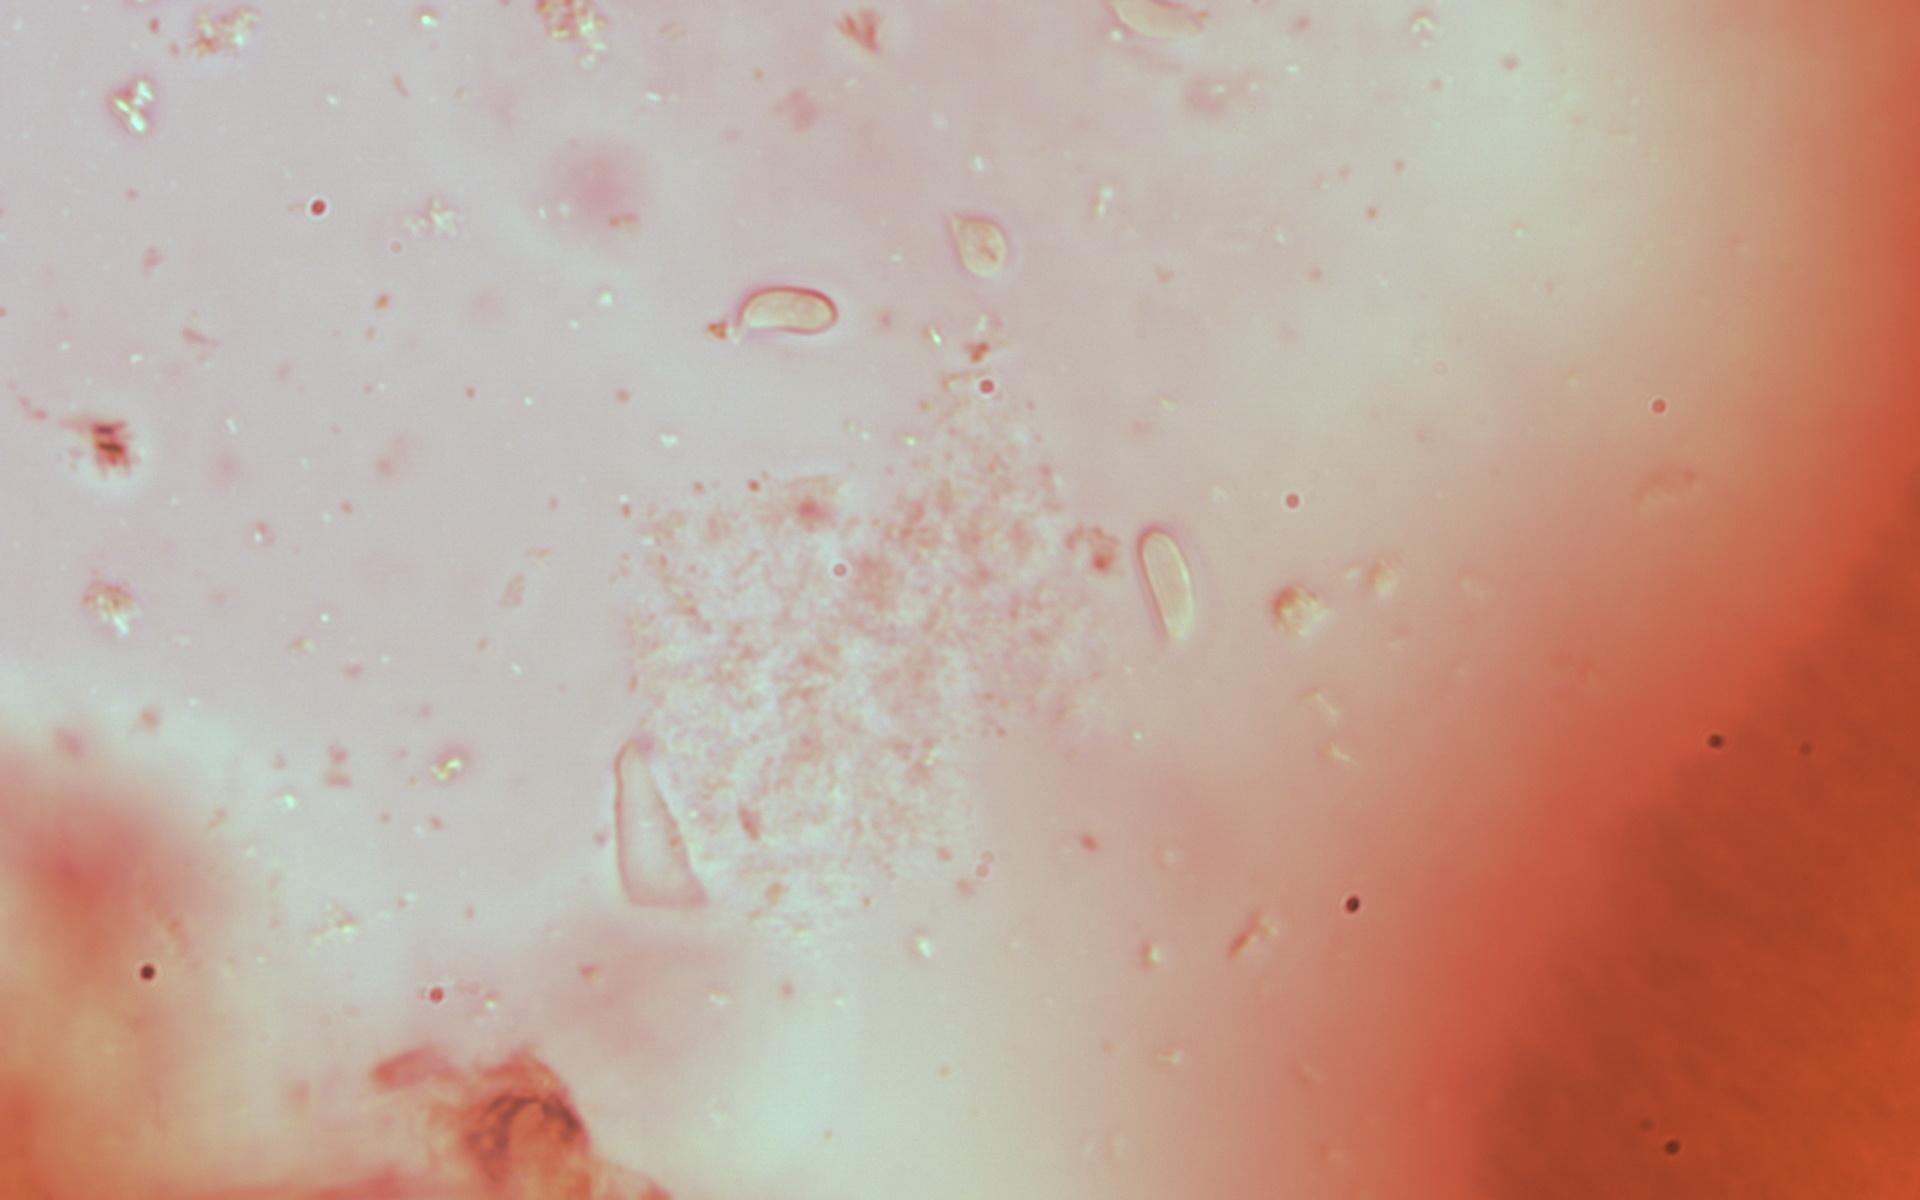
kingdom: Fungi
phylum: Basidiomycota
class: Dacrymycetes
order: Dacrymycetales
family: Dacrymycetaceae
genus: Dacryopinax
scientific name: Dacryopinax martinii
